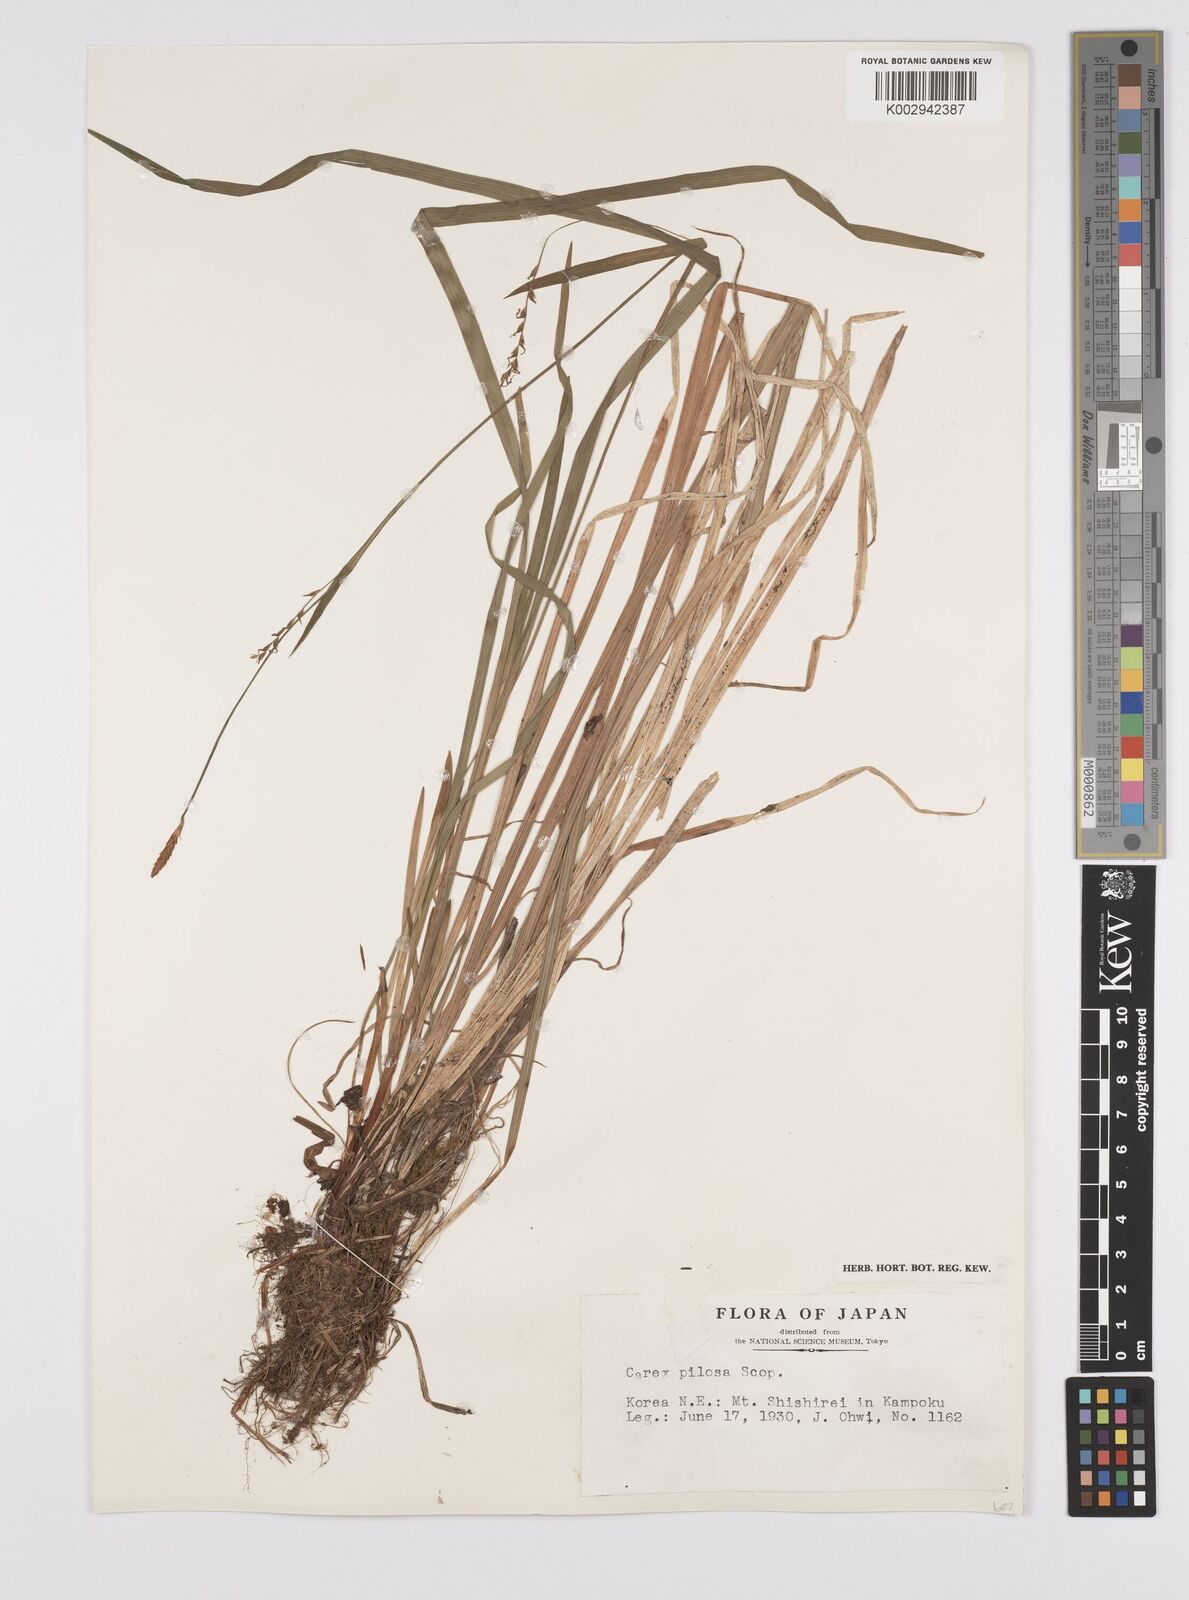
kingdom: Plantae
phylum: Tracheophyta
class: Liliopsida
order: Poales
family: Cyperaceae
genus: Carex
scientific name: Carex pilosa
